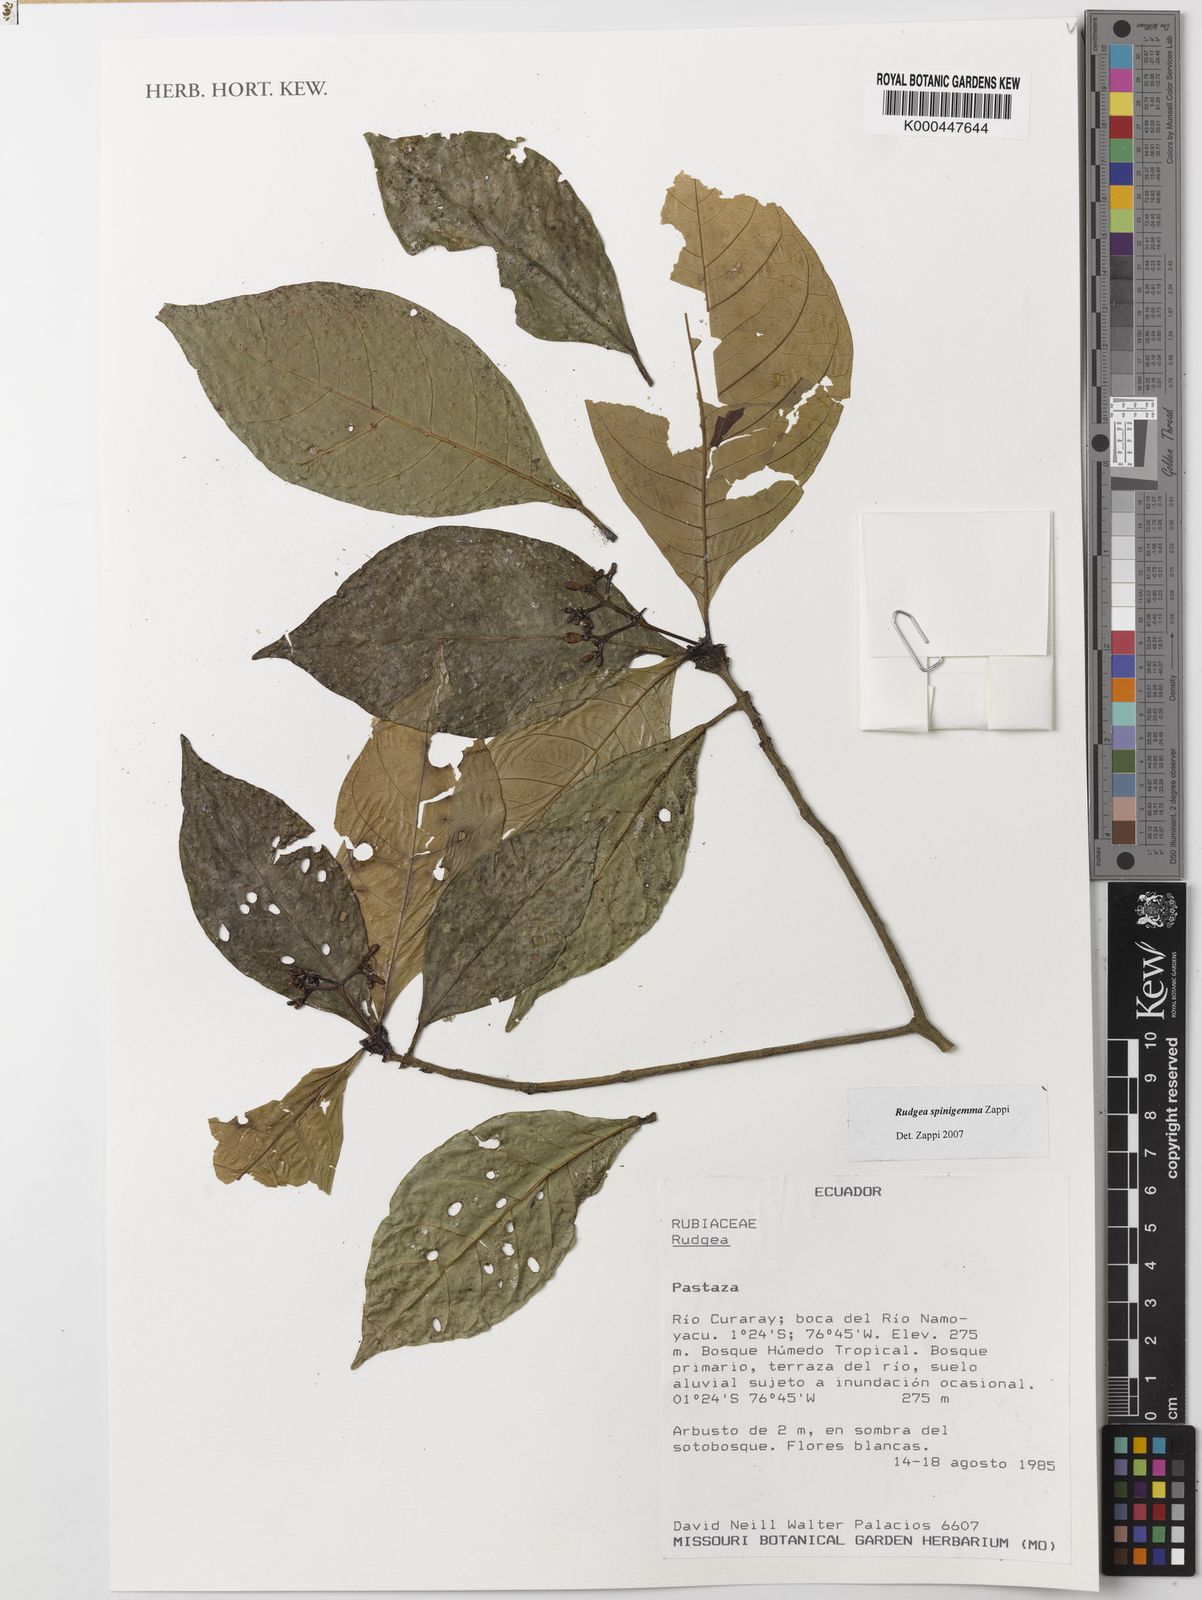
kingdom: Plantae
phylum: Tracheophyta
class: Magnoliopsida
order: Gentianales
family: Rubiaceae
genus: Rudgea
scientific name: Rudgea spinigemma
